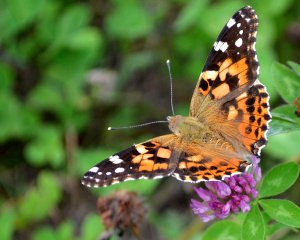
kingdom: Animalia
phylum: Arthropoda
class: Insecta
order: Lepidoptera
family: Nymphalidae
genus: Vanessa
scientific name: Vanessa cardui
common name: Painted Lady
